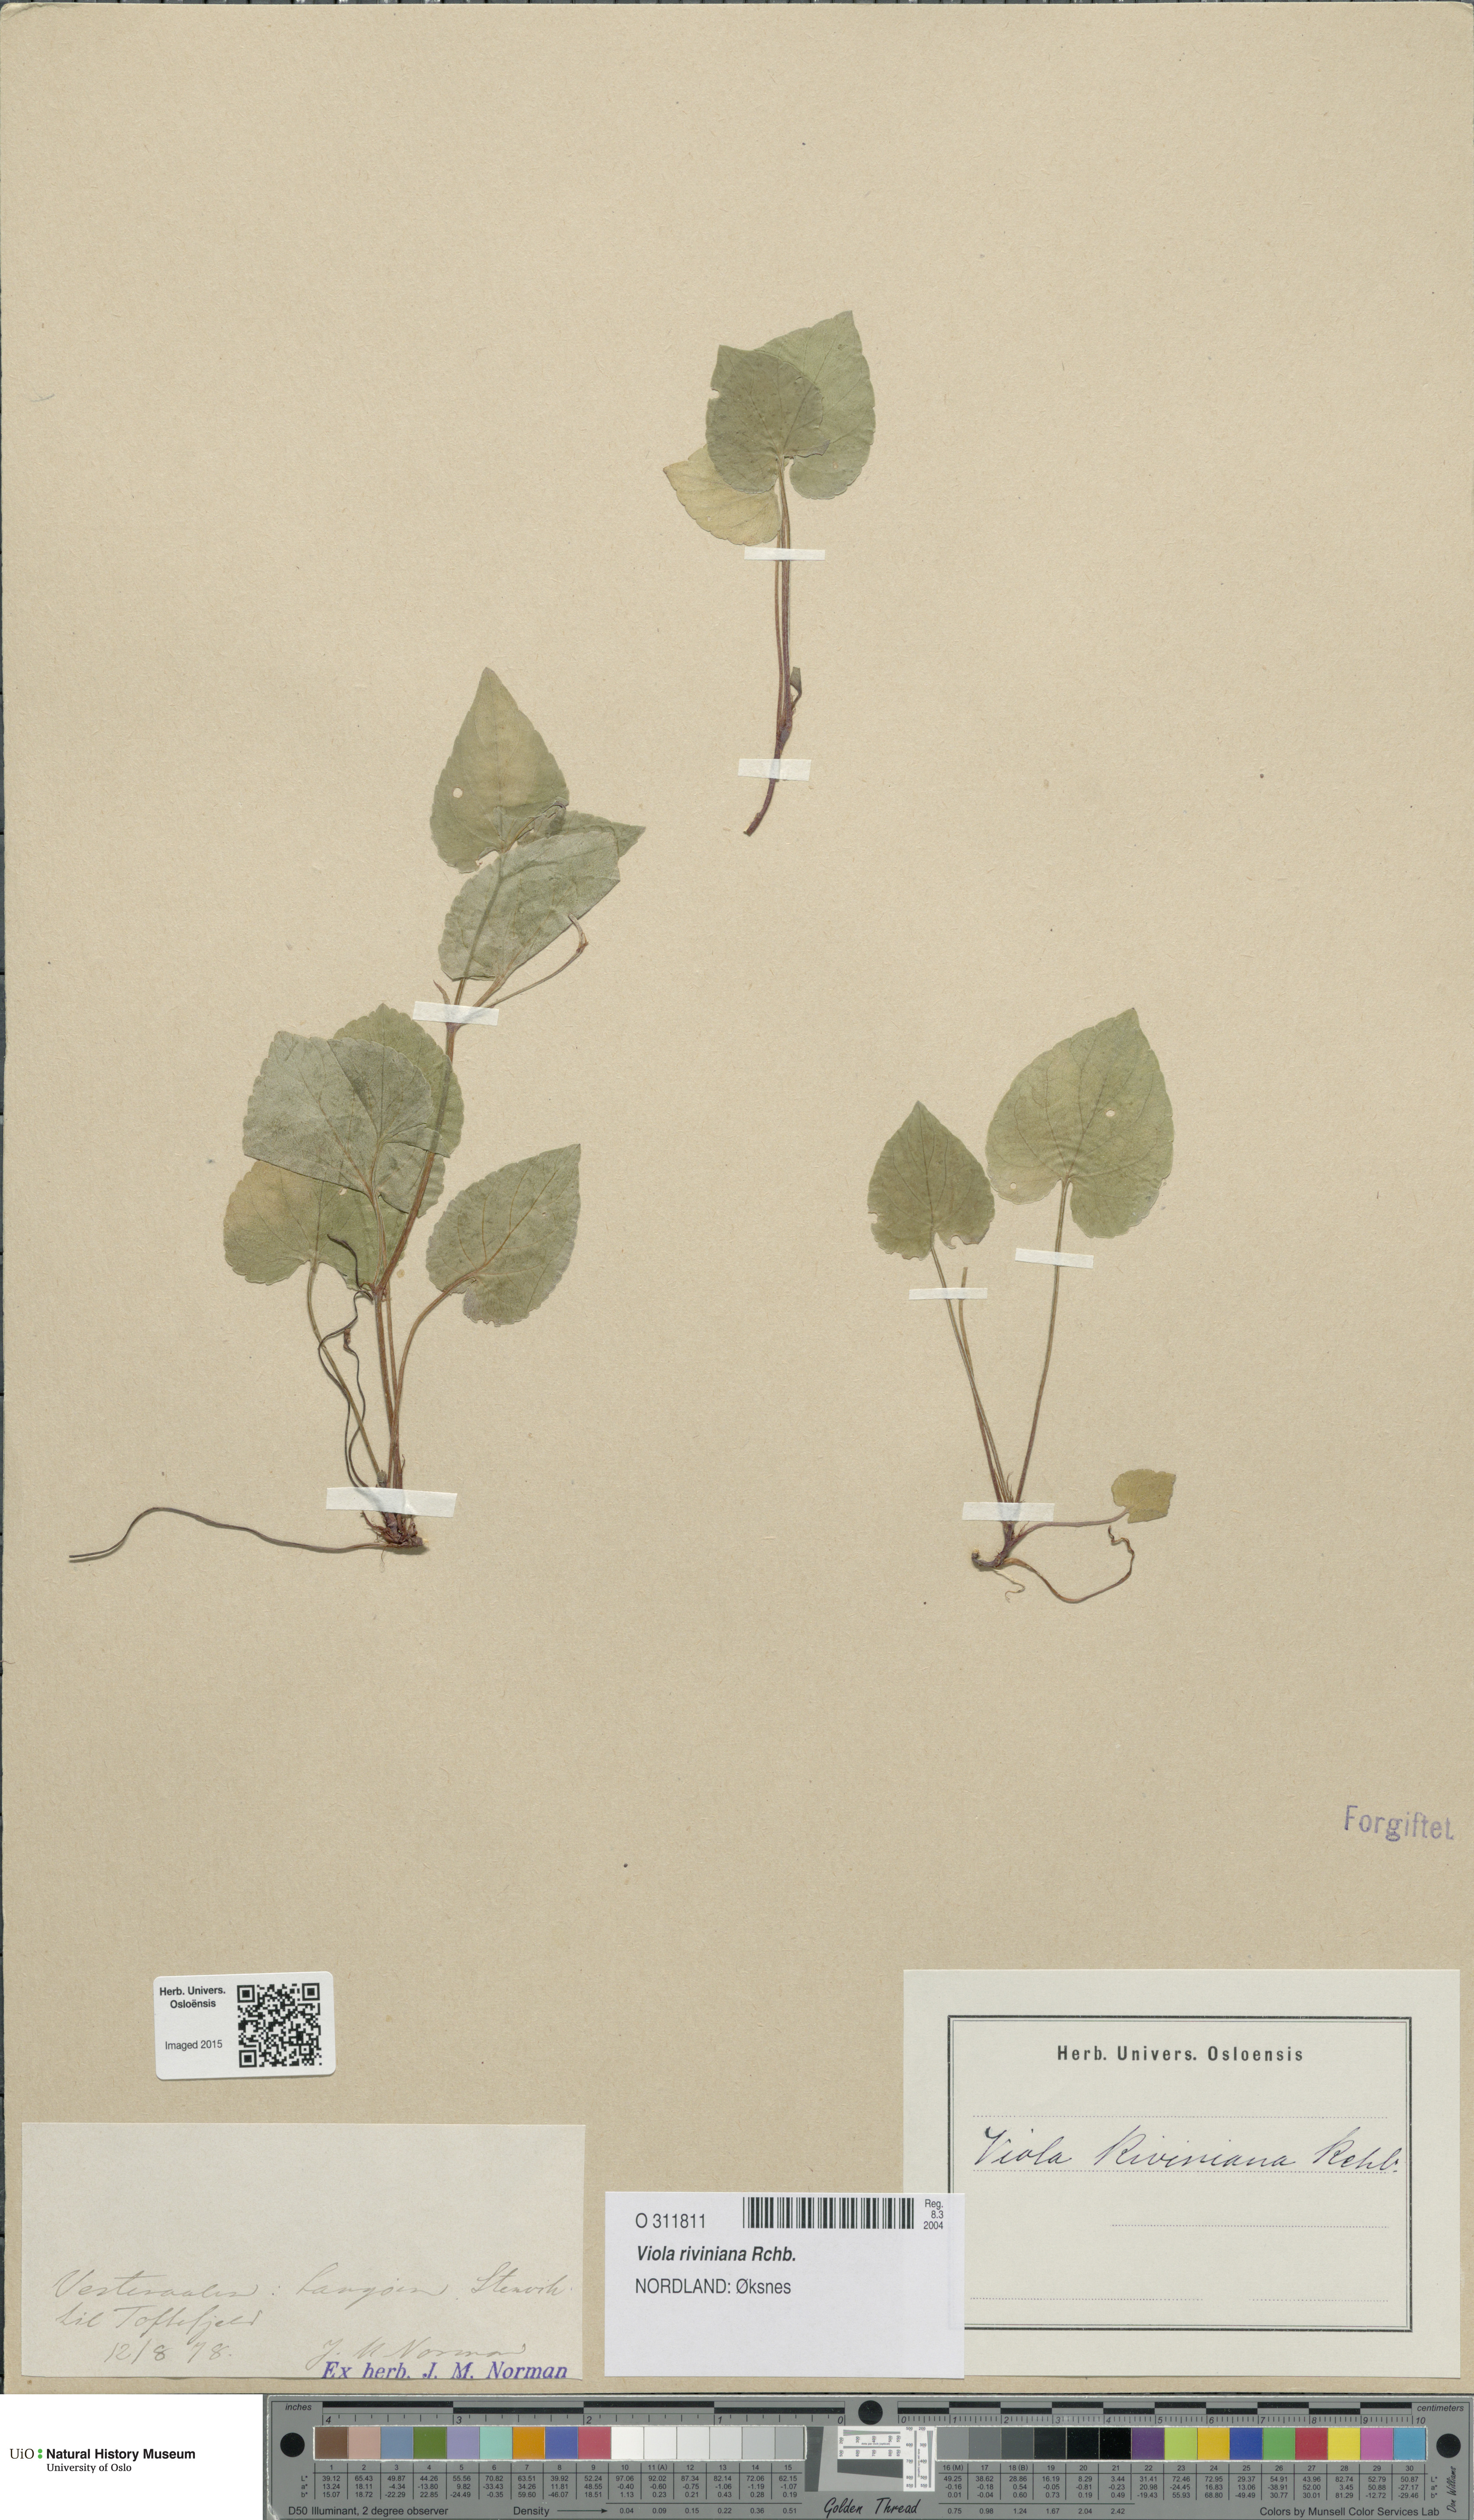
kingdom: Plantae
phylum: Tracheophyta
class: Magnoliopsida
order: Malpighiales
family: Violaceae
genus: Viola
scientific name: Viola riviniana
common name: Common dog-violet
